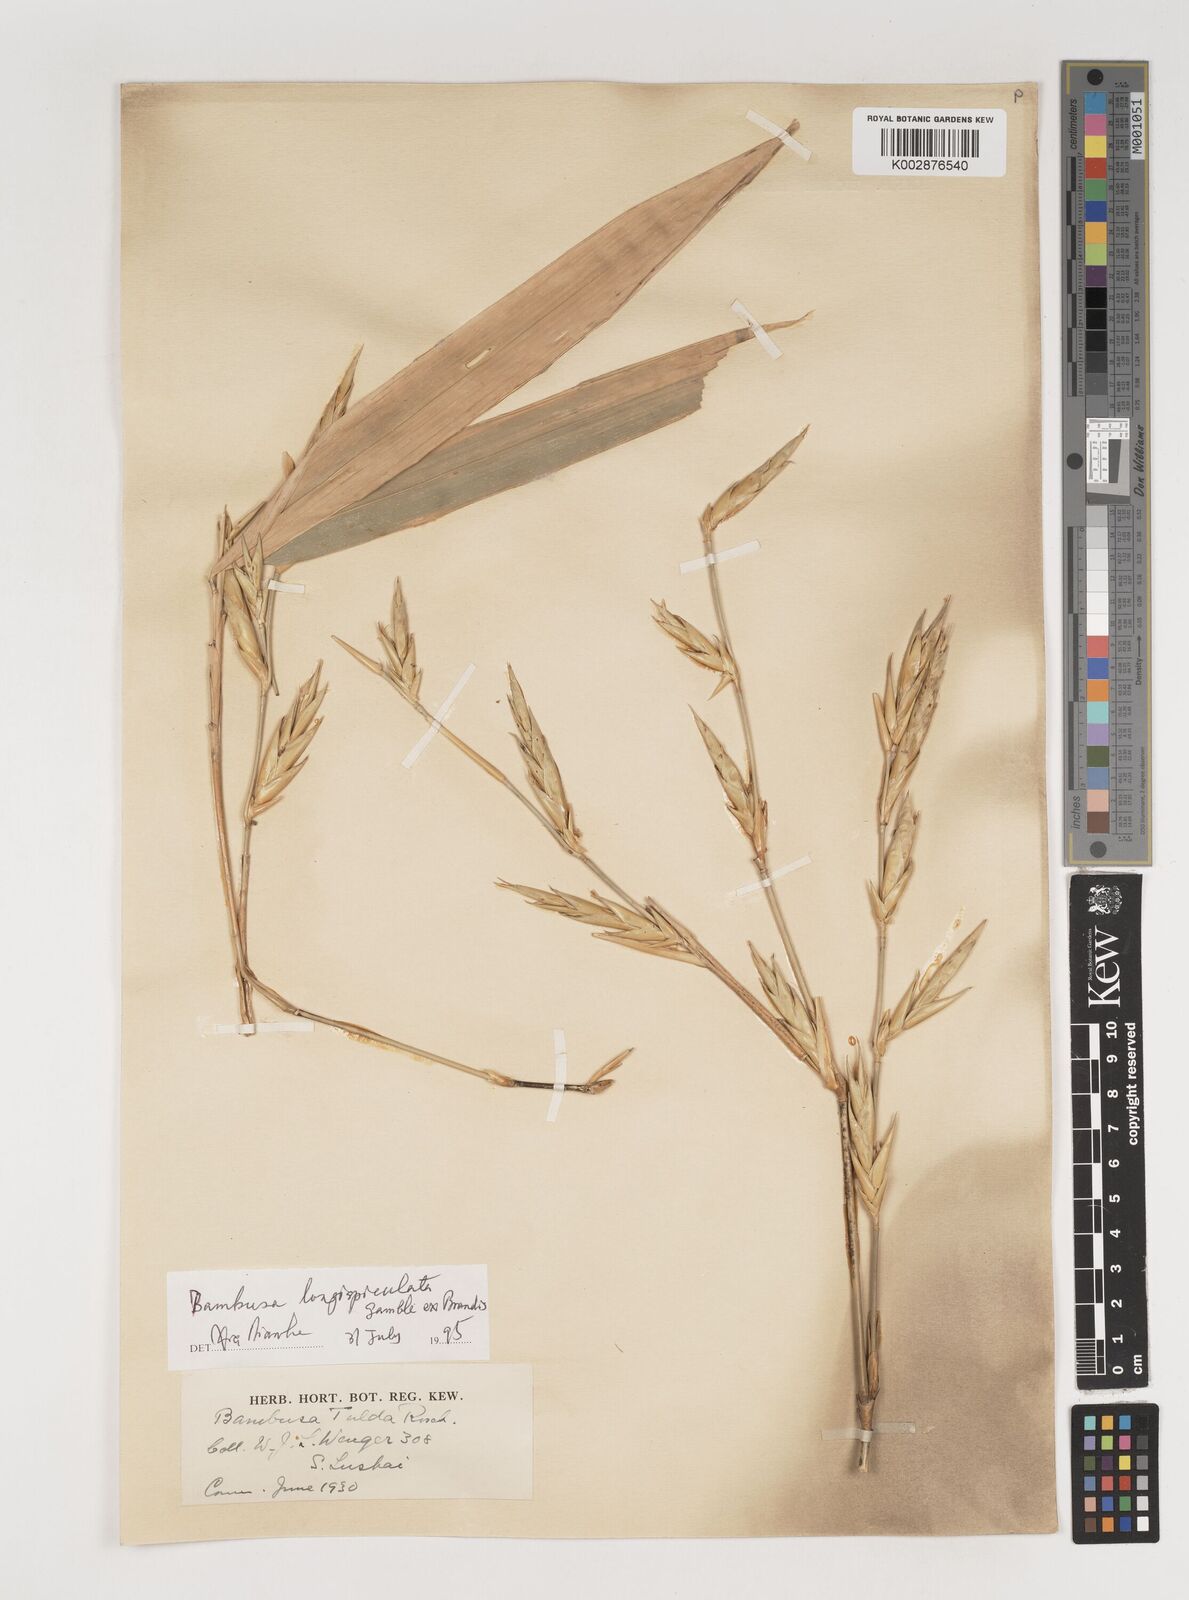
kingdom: Plantae
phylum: Tracheophyta
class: Liliopsida
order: Poales
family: Poaceae
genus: Bambusa
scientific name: Bambusa longispiculata
